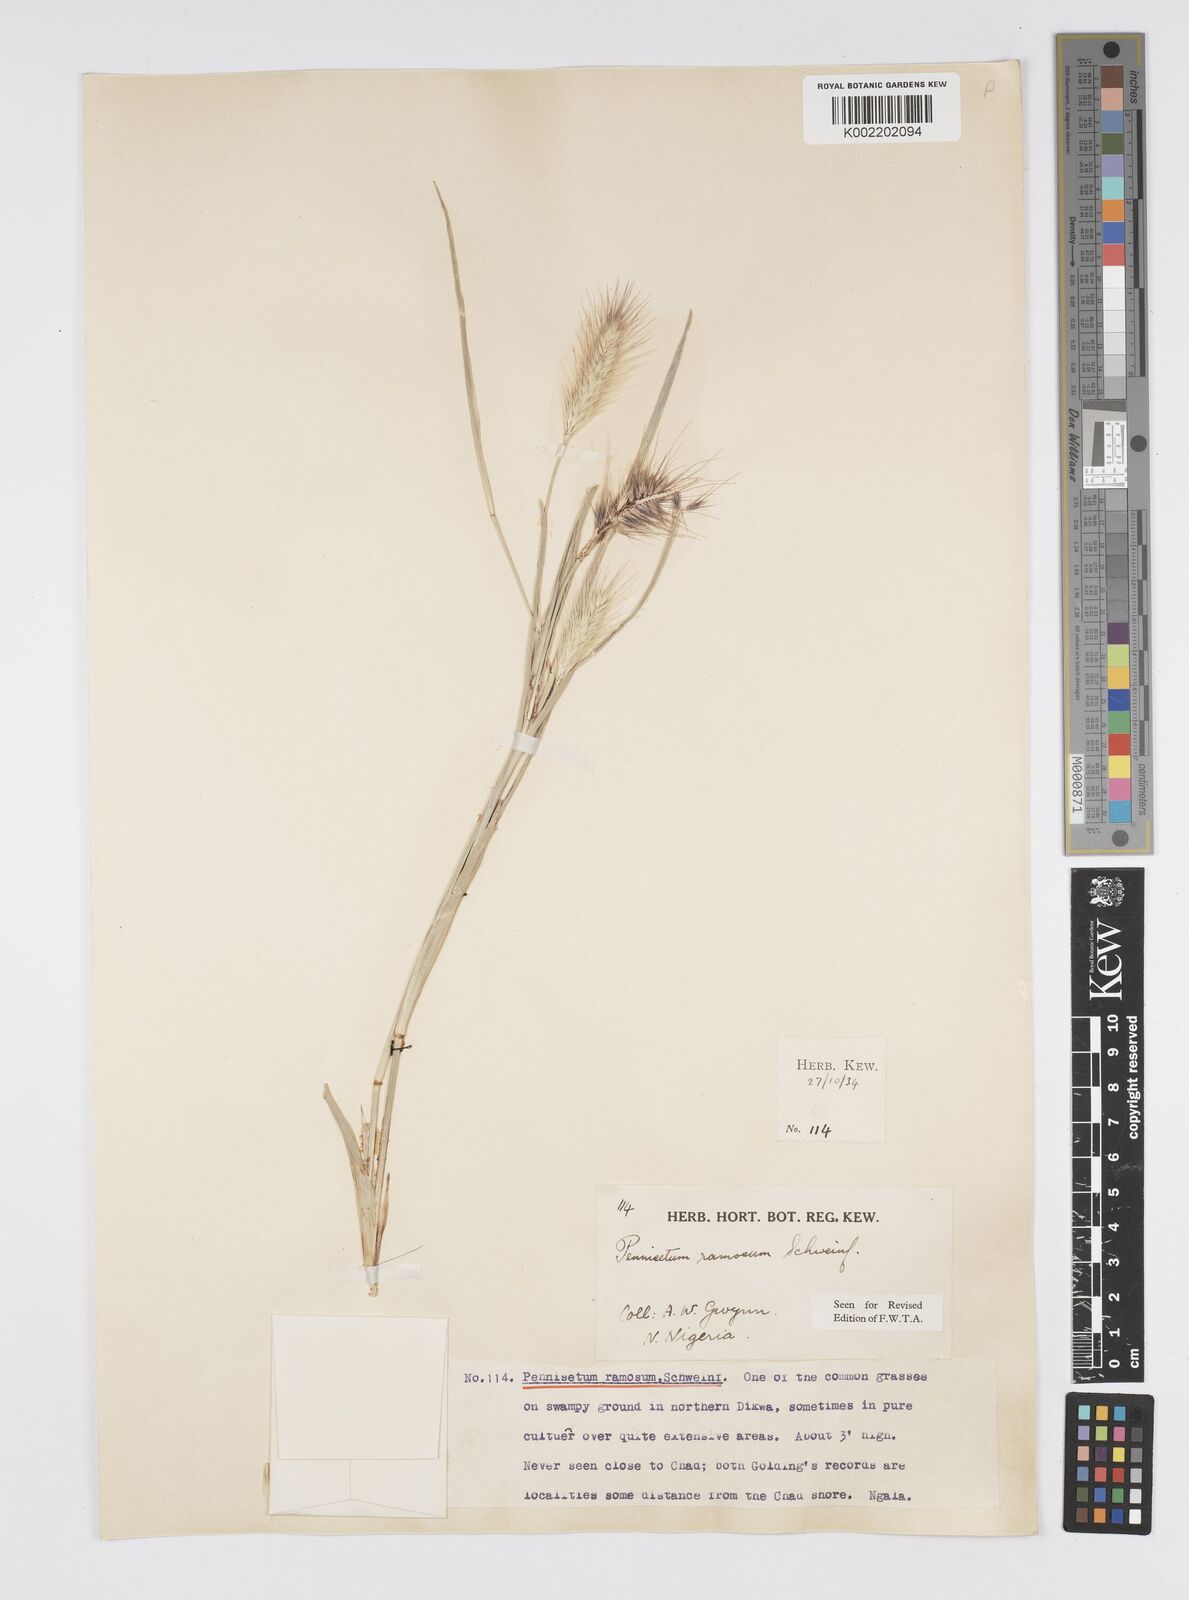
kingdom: Plantae
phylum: Tracheophyta
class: Liliopsida
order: Poales
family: Poaceae
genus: Cenchrus
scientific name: Cenchrus ramosus
